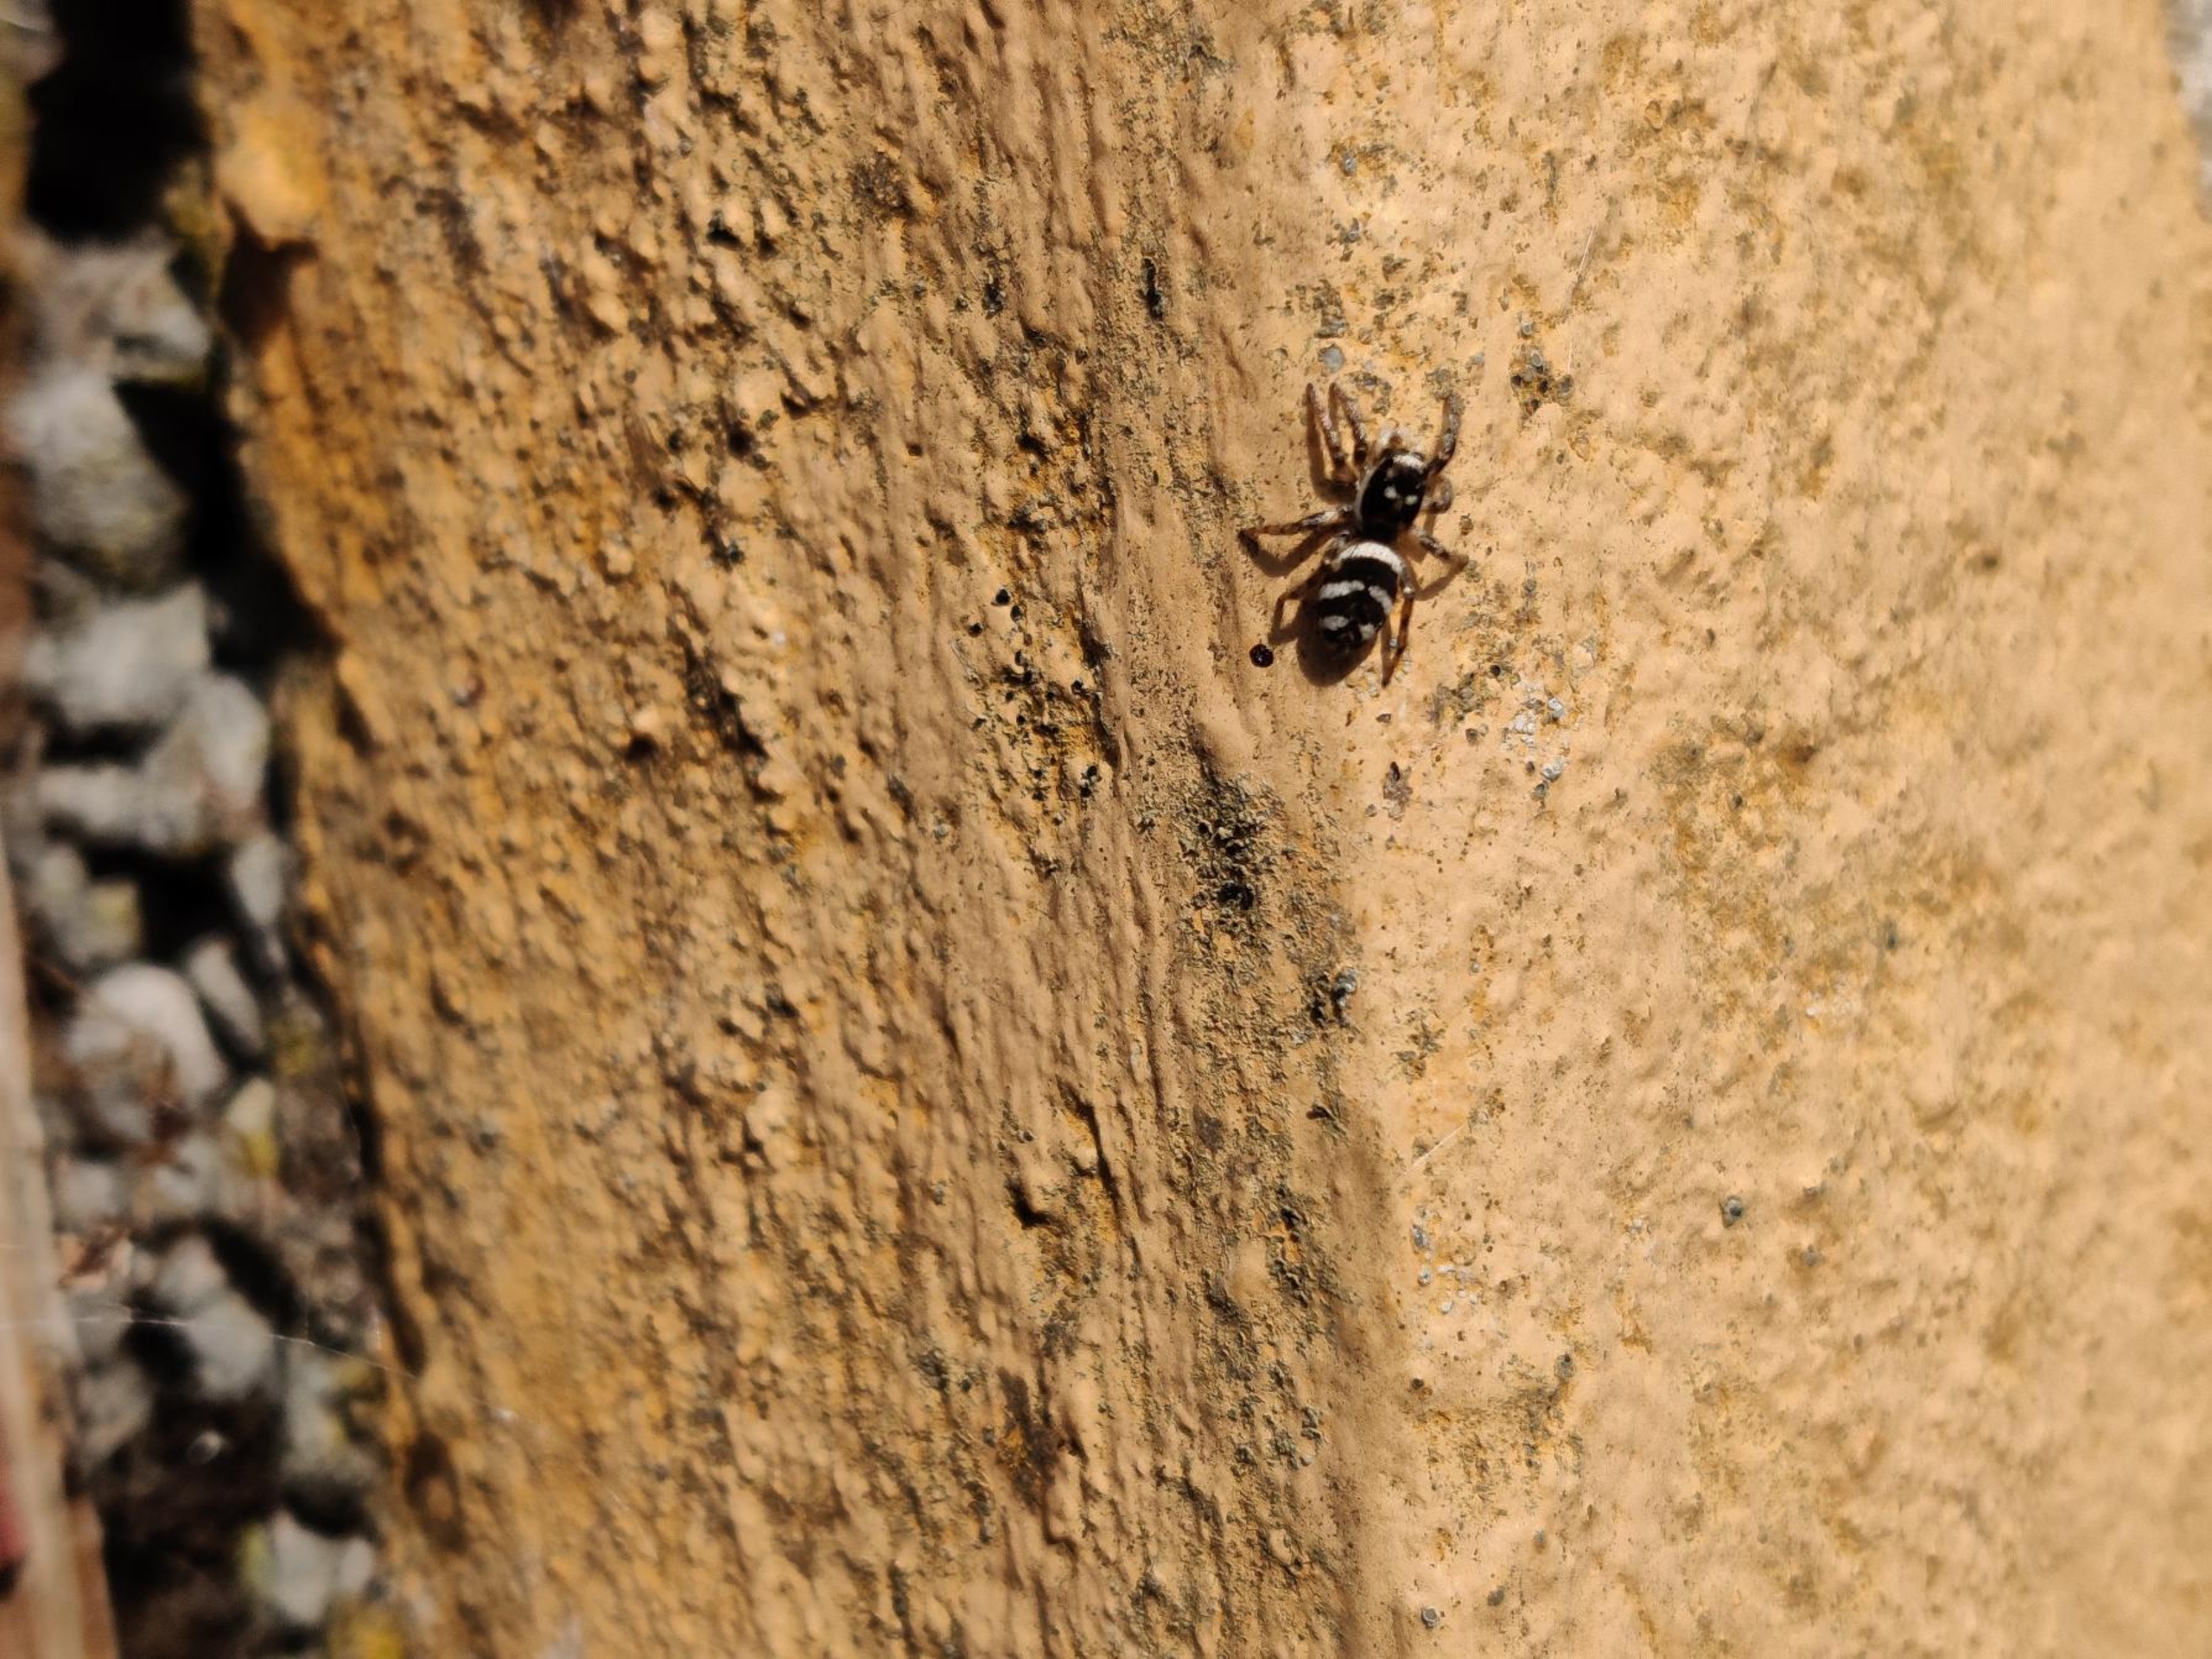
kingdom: Animalia
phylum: Arthropoda
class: Arachnida
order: Araneae
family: Salticidae
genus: Salticus
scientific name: Salticus scenicus
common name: Almindelig zebraedderkop
